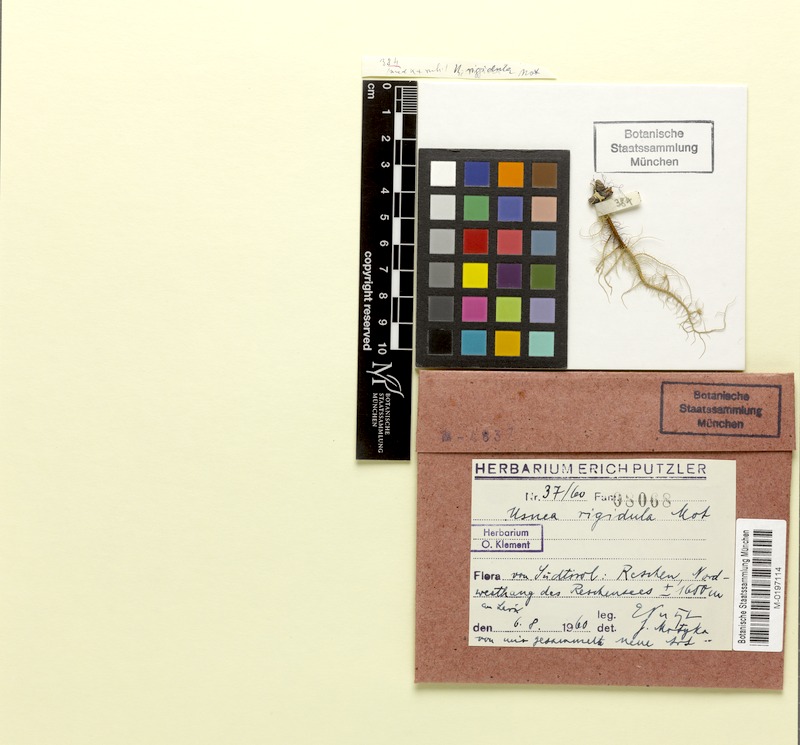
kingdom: Fungi
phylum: Ascomycota
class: Lecanoromycetes
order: Lecanorales
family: Parmeliaceae
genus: Usnea
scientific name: Usnea rigidula
